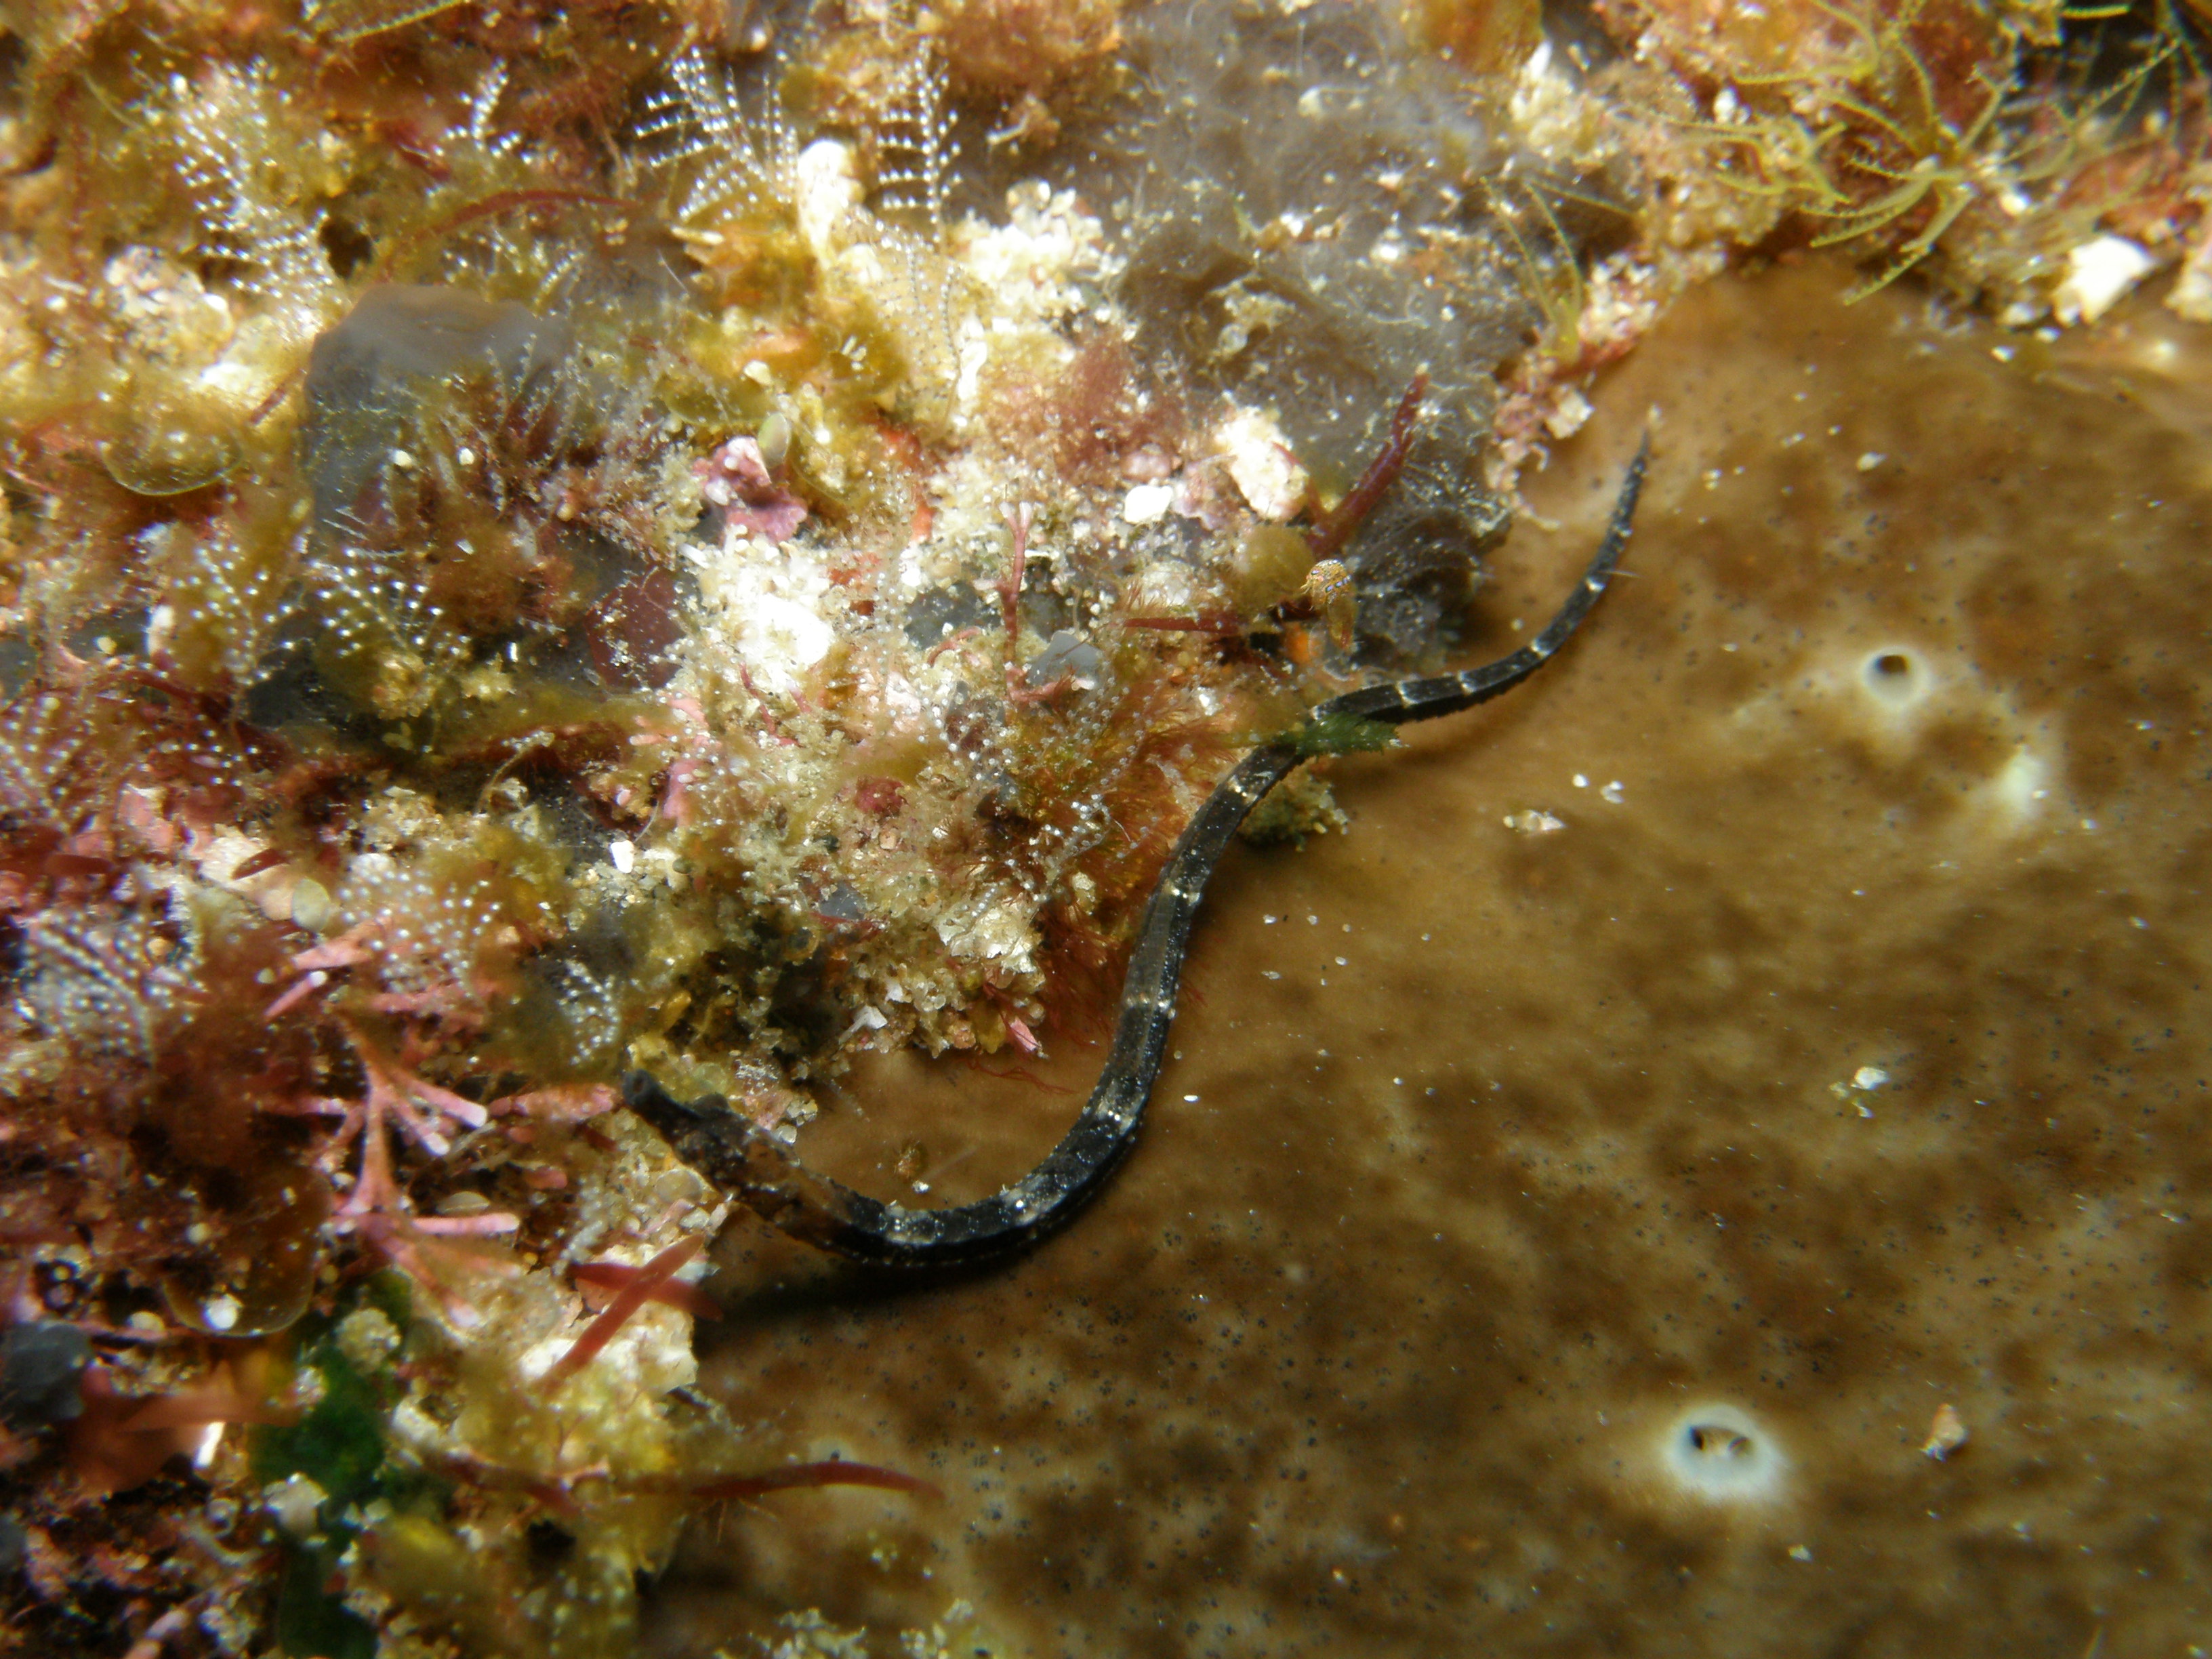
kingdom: Animalia
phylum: Chordata
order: Syngnathiformes
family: Syngnathidae
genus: Micrognathus
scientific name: Micrognathus andersonii
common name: Anderson's pipefish
